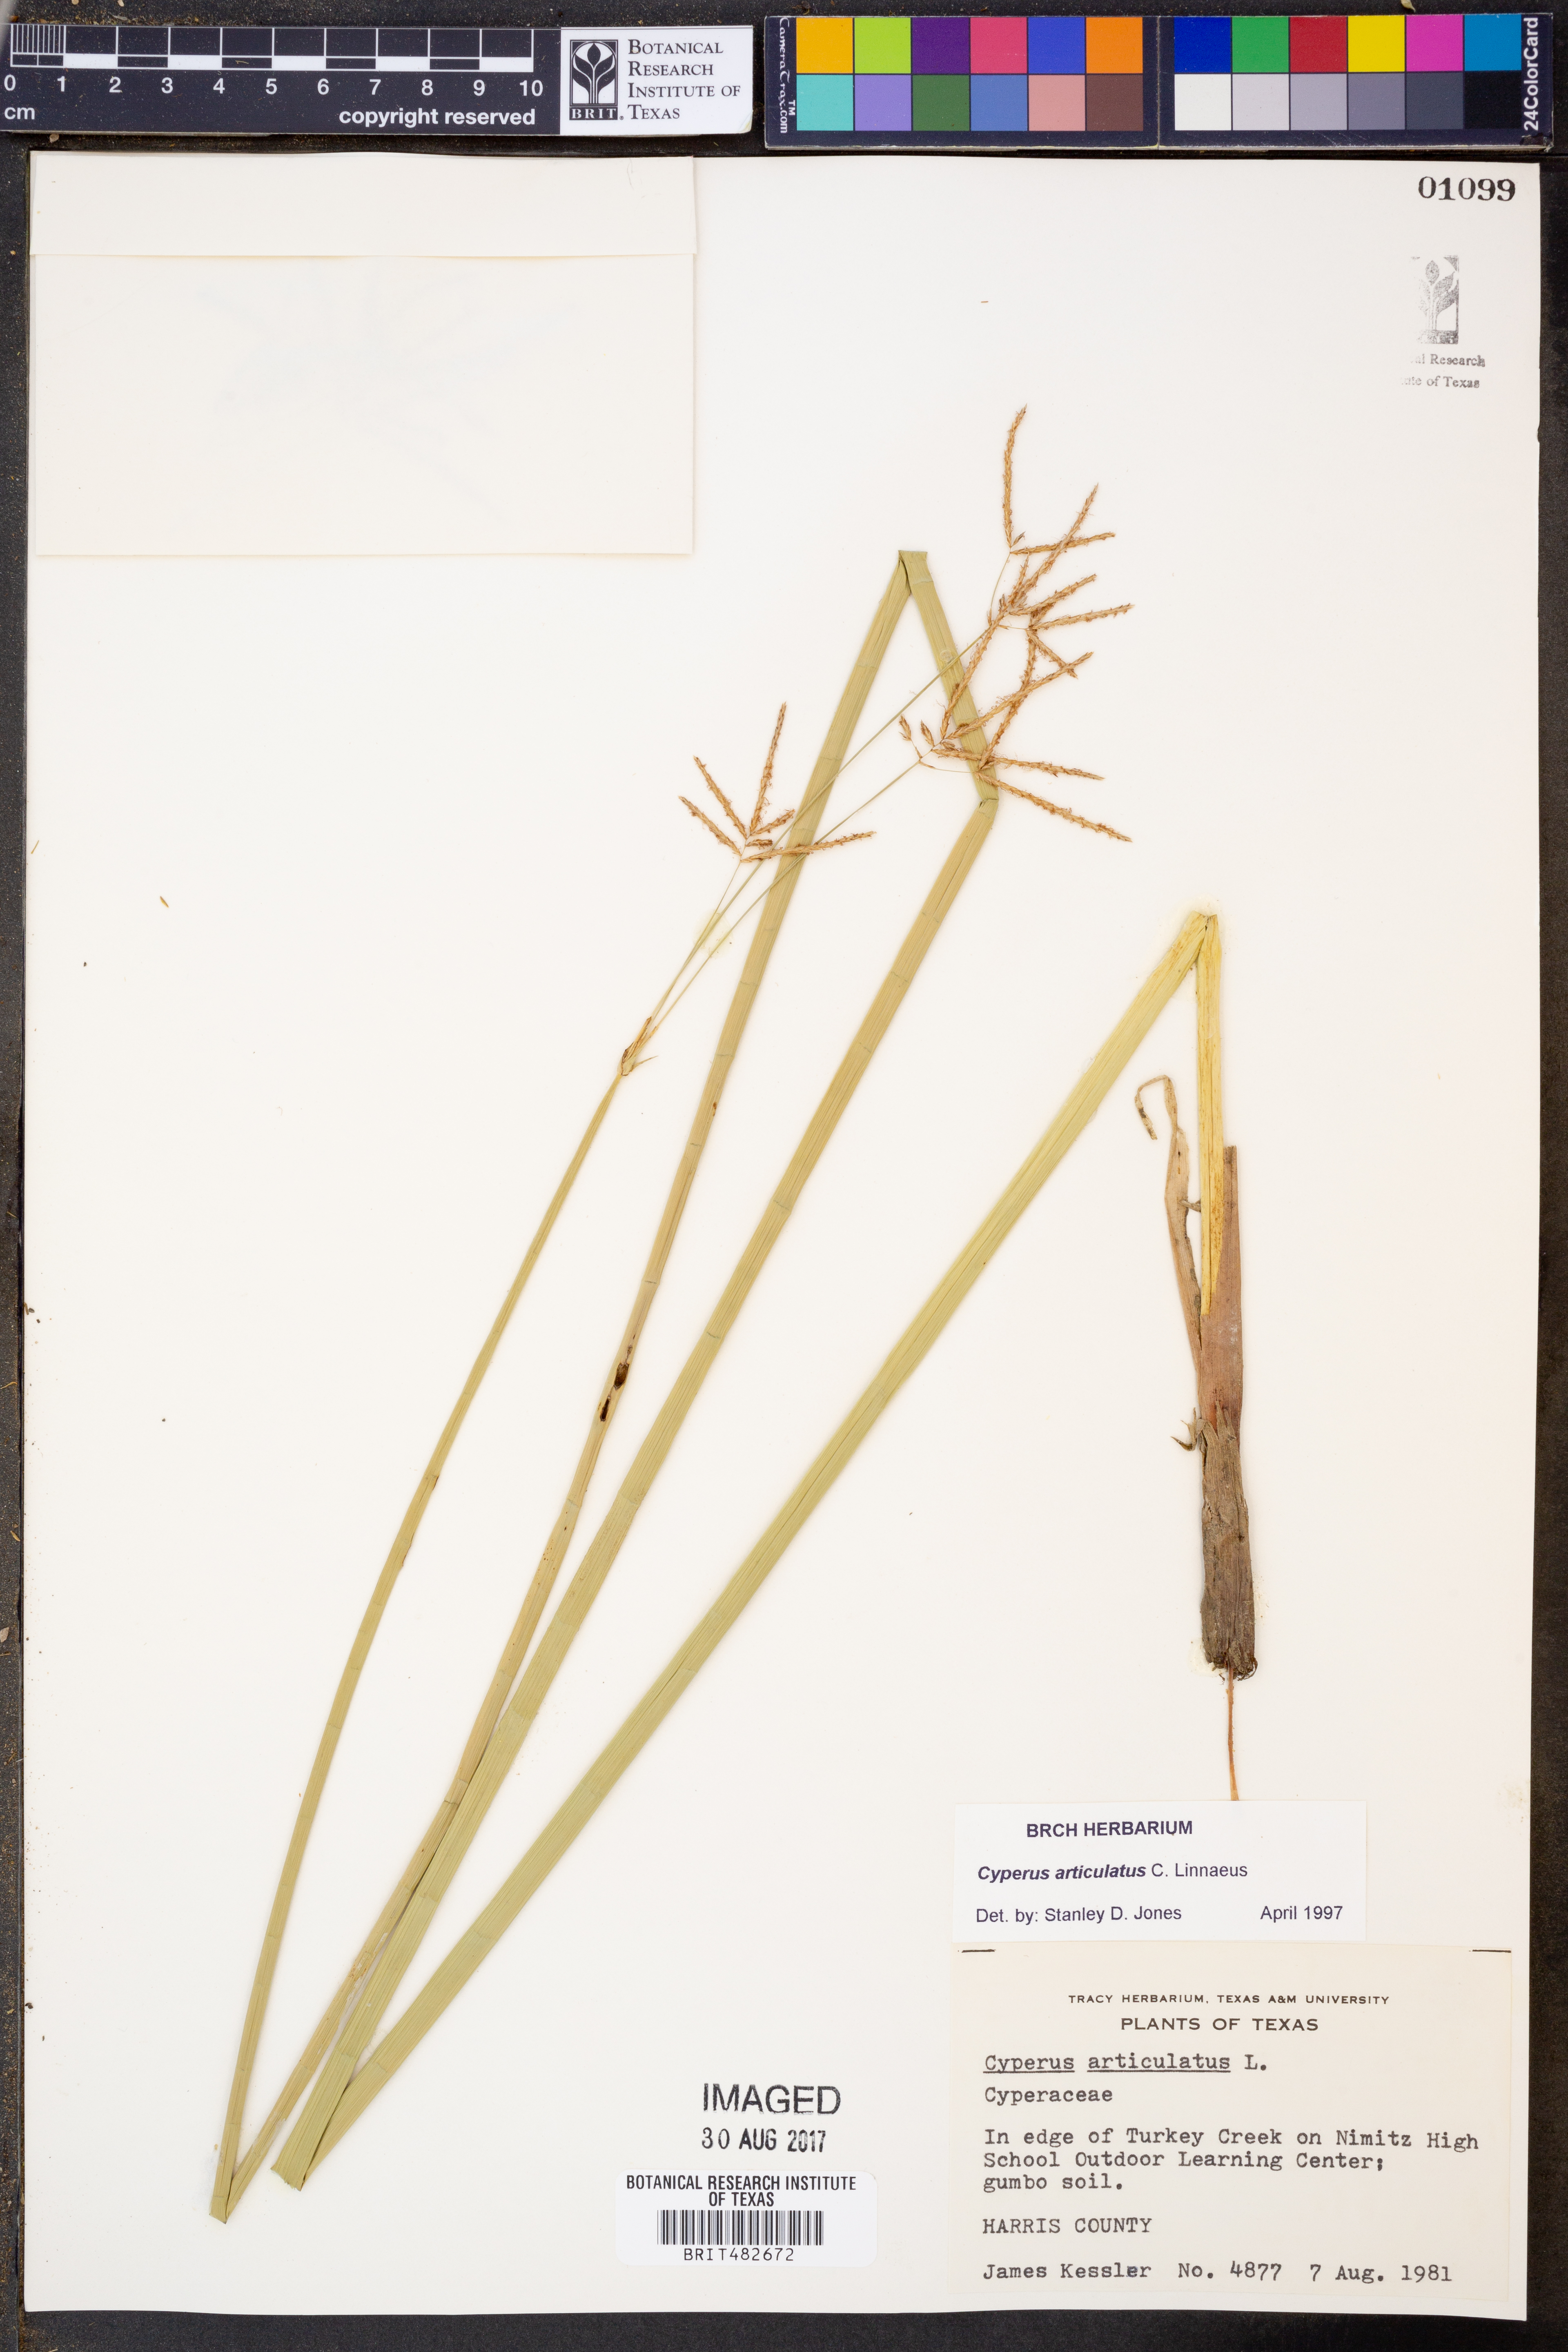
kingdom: Plantae
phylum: Tracheophyta
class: Liliopsida
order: Poales
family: Cyperaceae
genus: Cyperus
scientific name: Cyperus articulatus
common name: Jointed flatsedge
